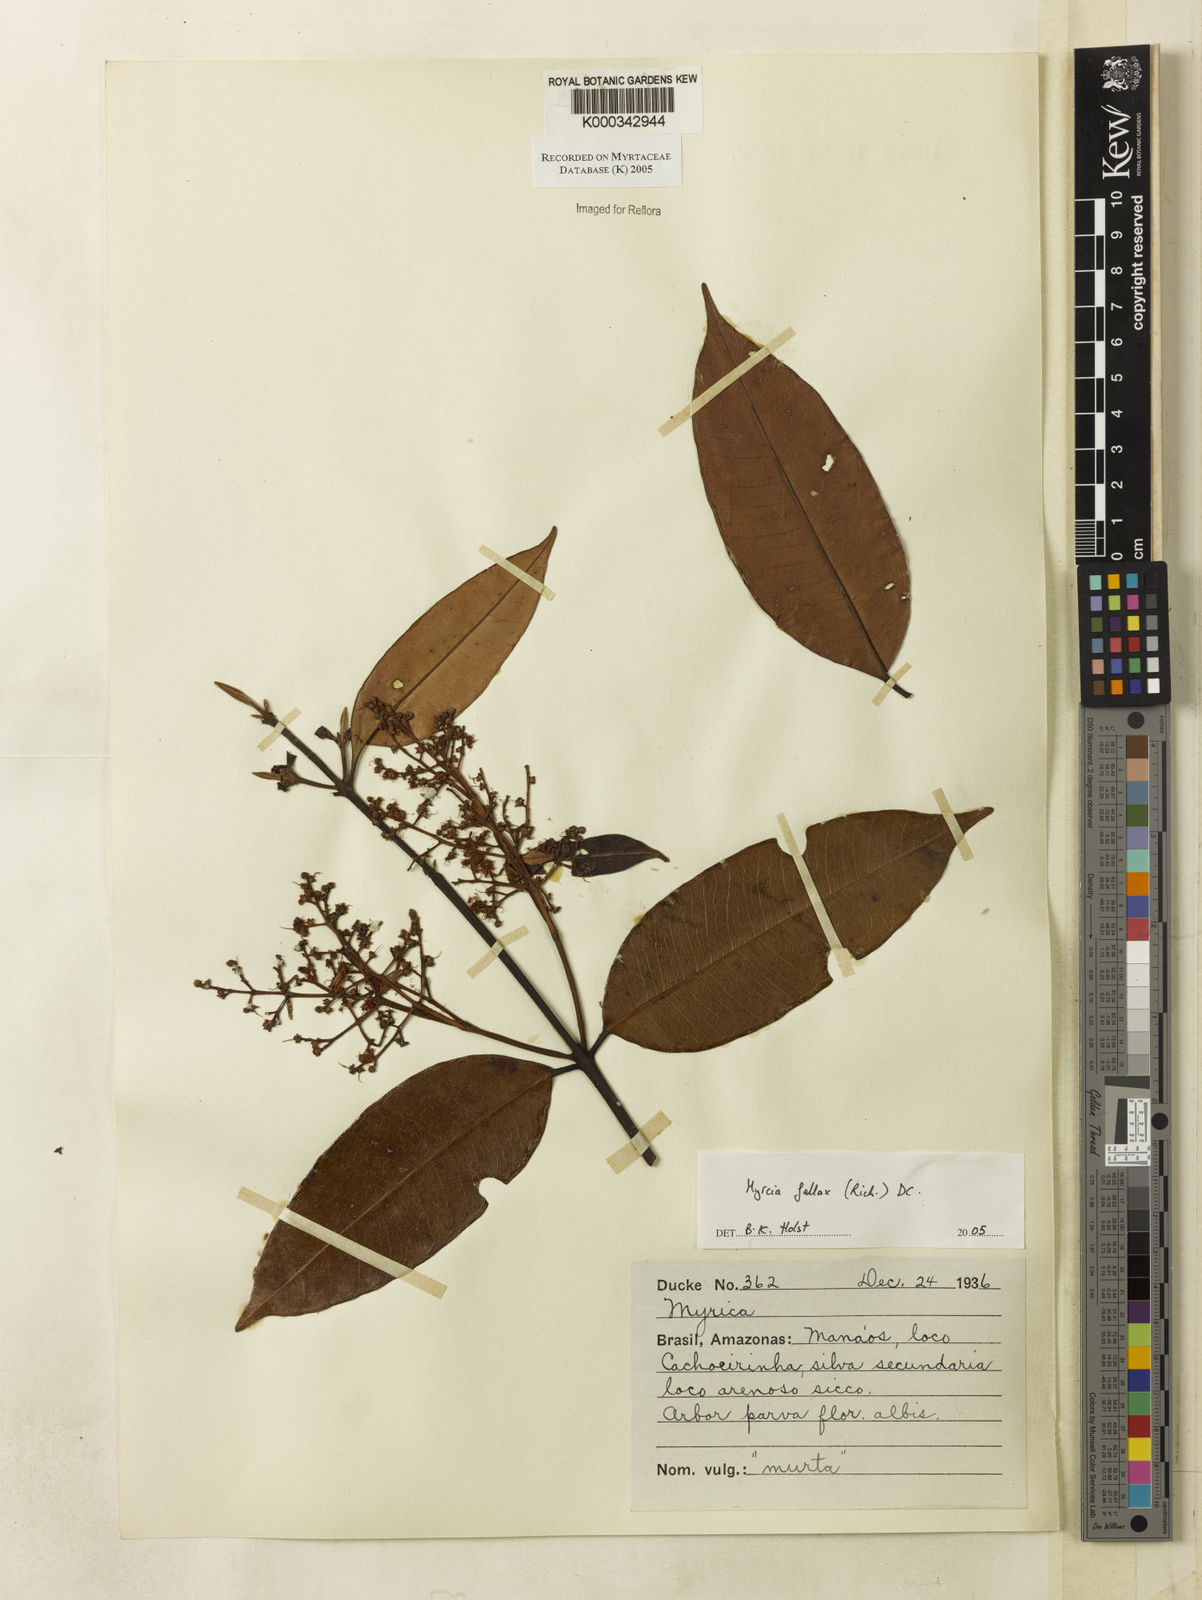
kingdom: Plantae
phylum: Tracheophyta
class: Magnoliopsida
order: Myrtales
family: Myrtaceae
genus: Myrcia
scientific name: Myrcia splendens
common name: Surinam cherry
